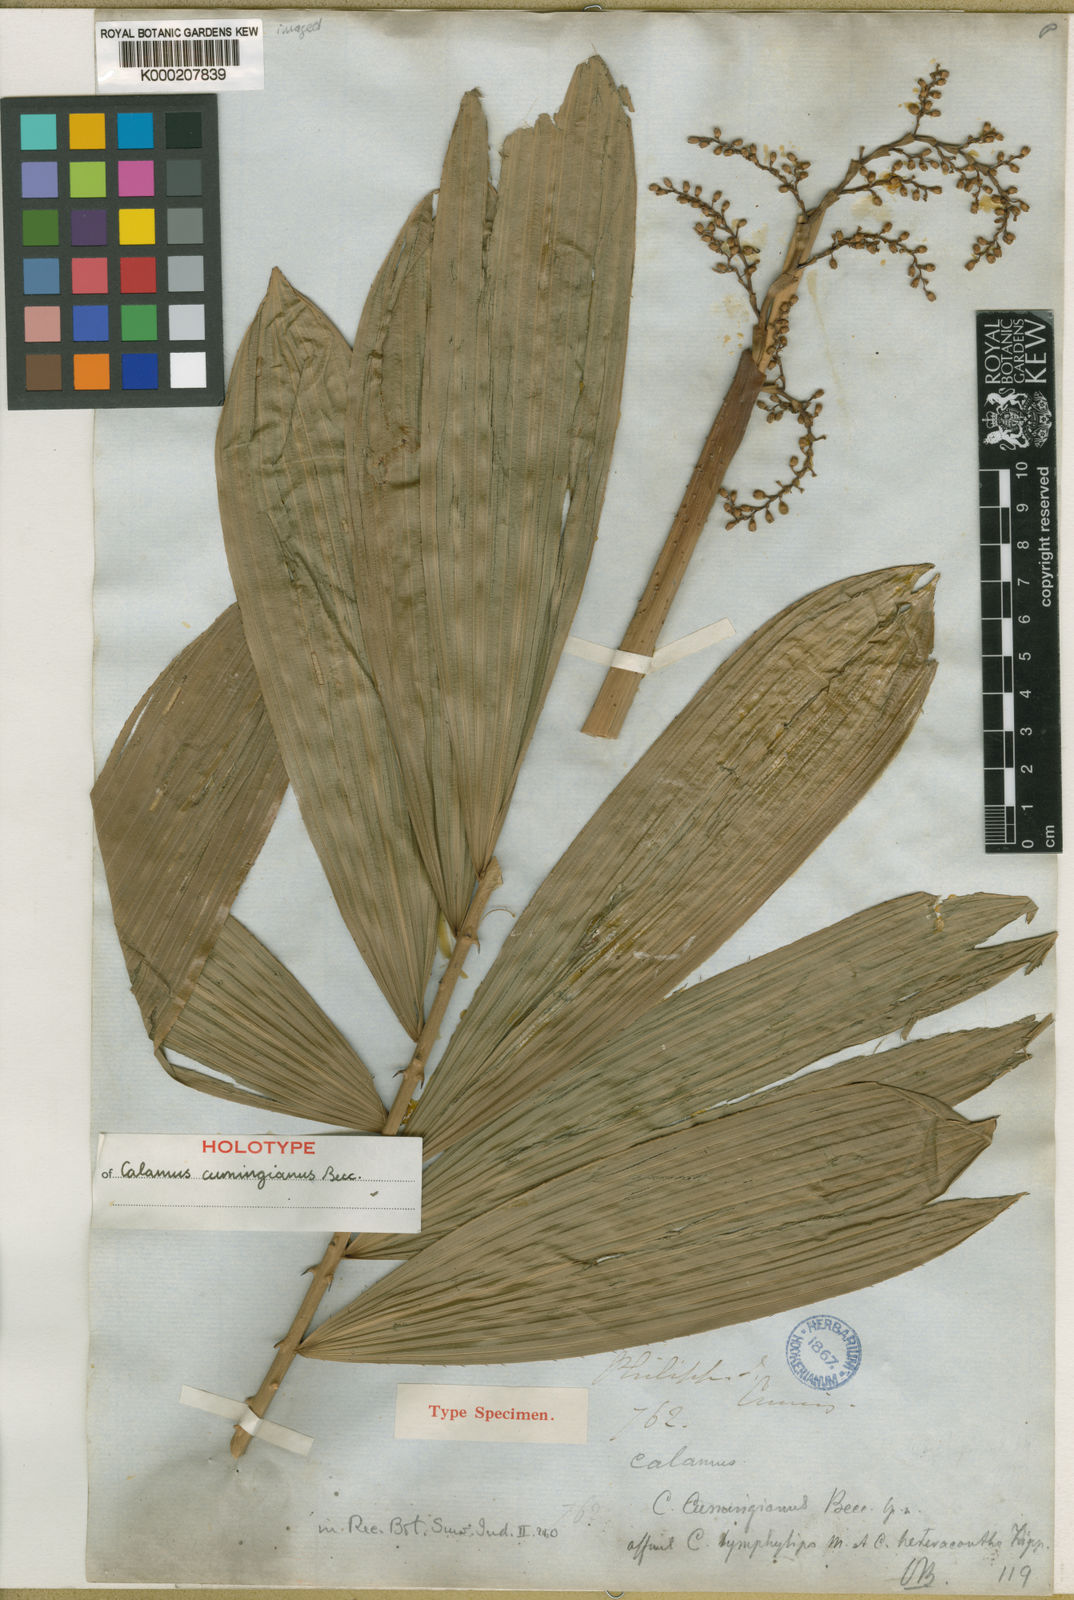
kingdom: Plantae
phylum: Tracheophyta
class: Liliopsida
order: Arecales
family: Arecaceae
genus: Calamus
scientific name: Calamus cumingianus
